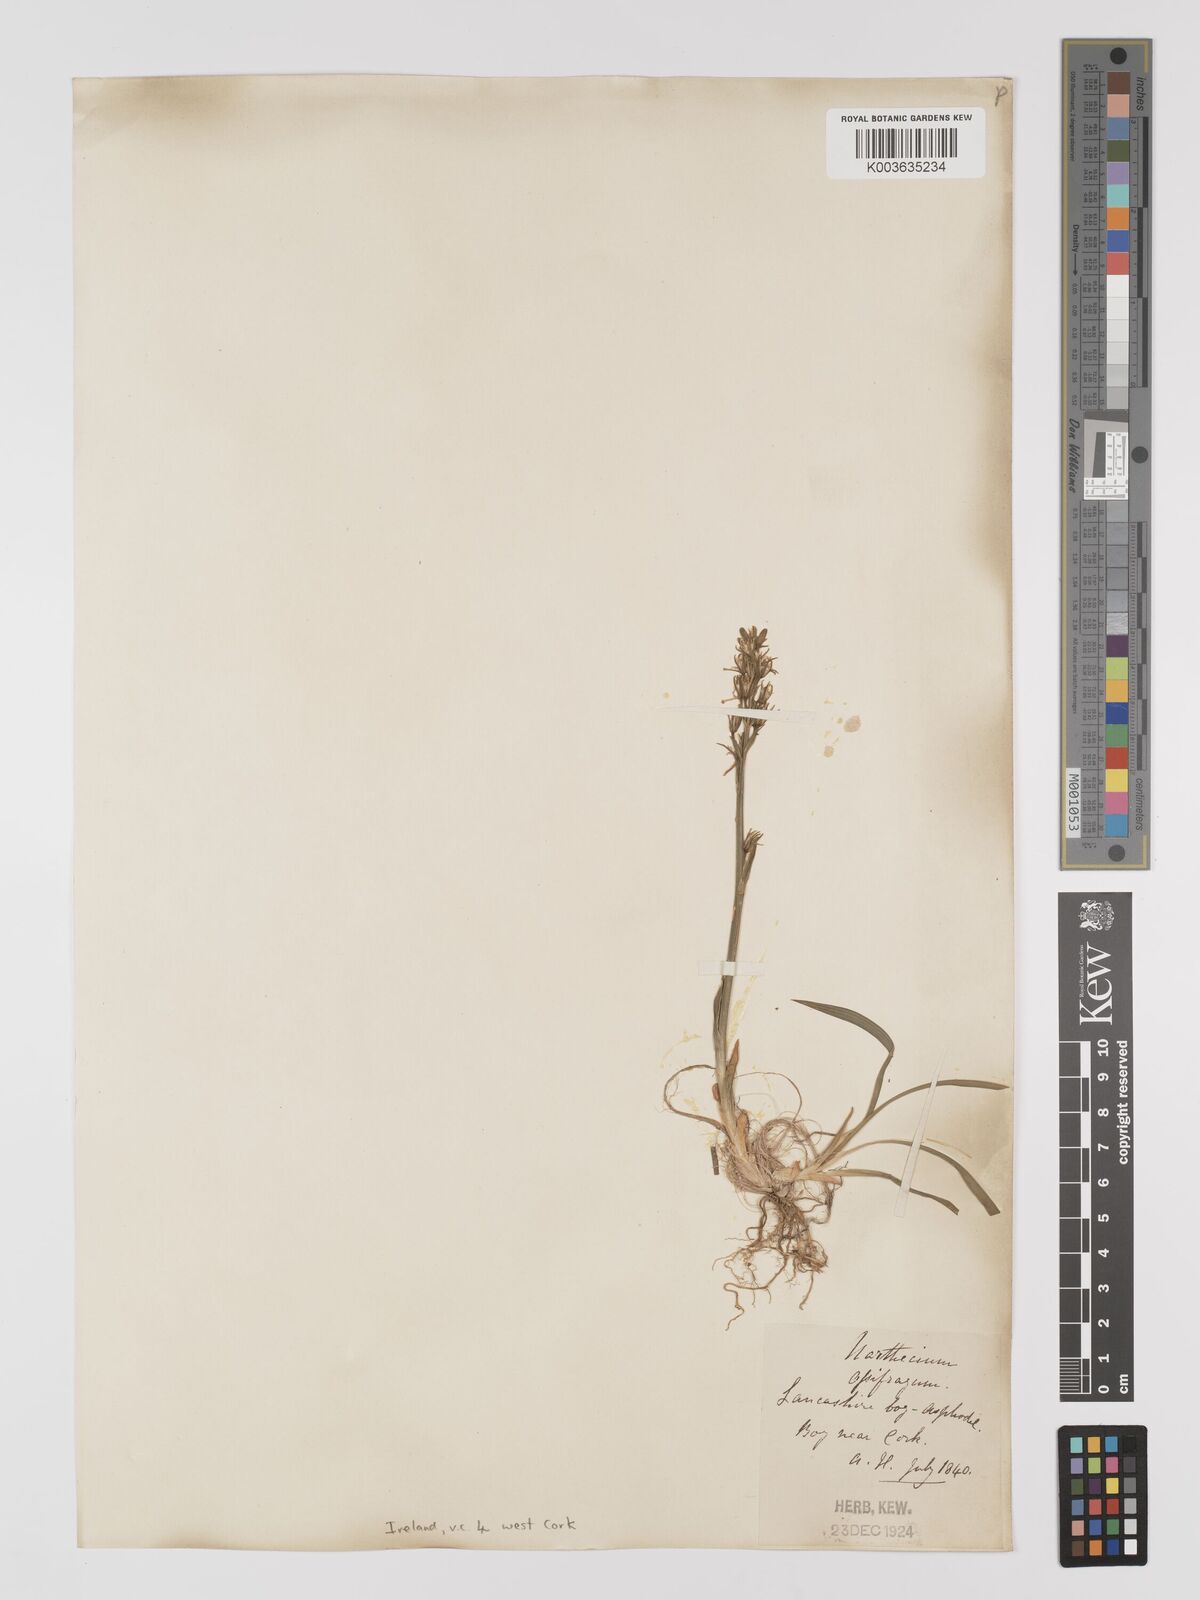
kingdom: Plantae
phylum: Tracheophyta
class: Liliopsida
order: Dioscoreales
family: Nartheciaceae
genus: Narthecium
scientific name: Narthecium ossifragum
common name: Bog asphodel
